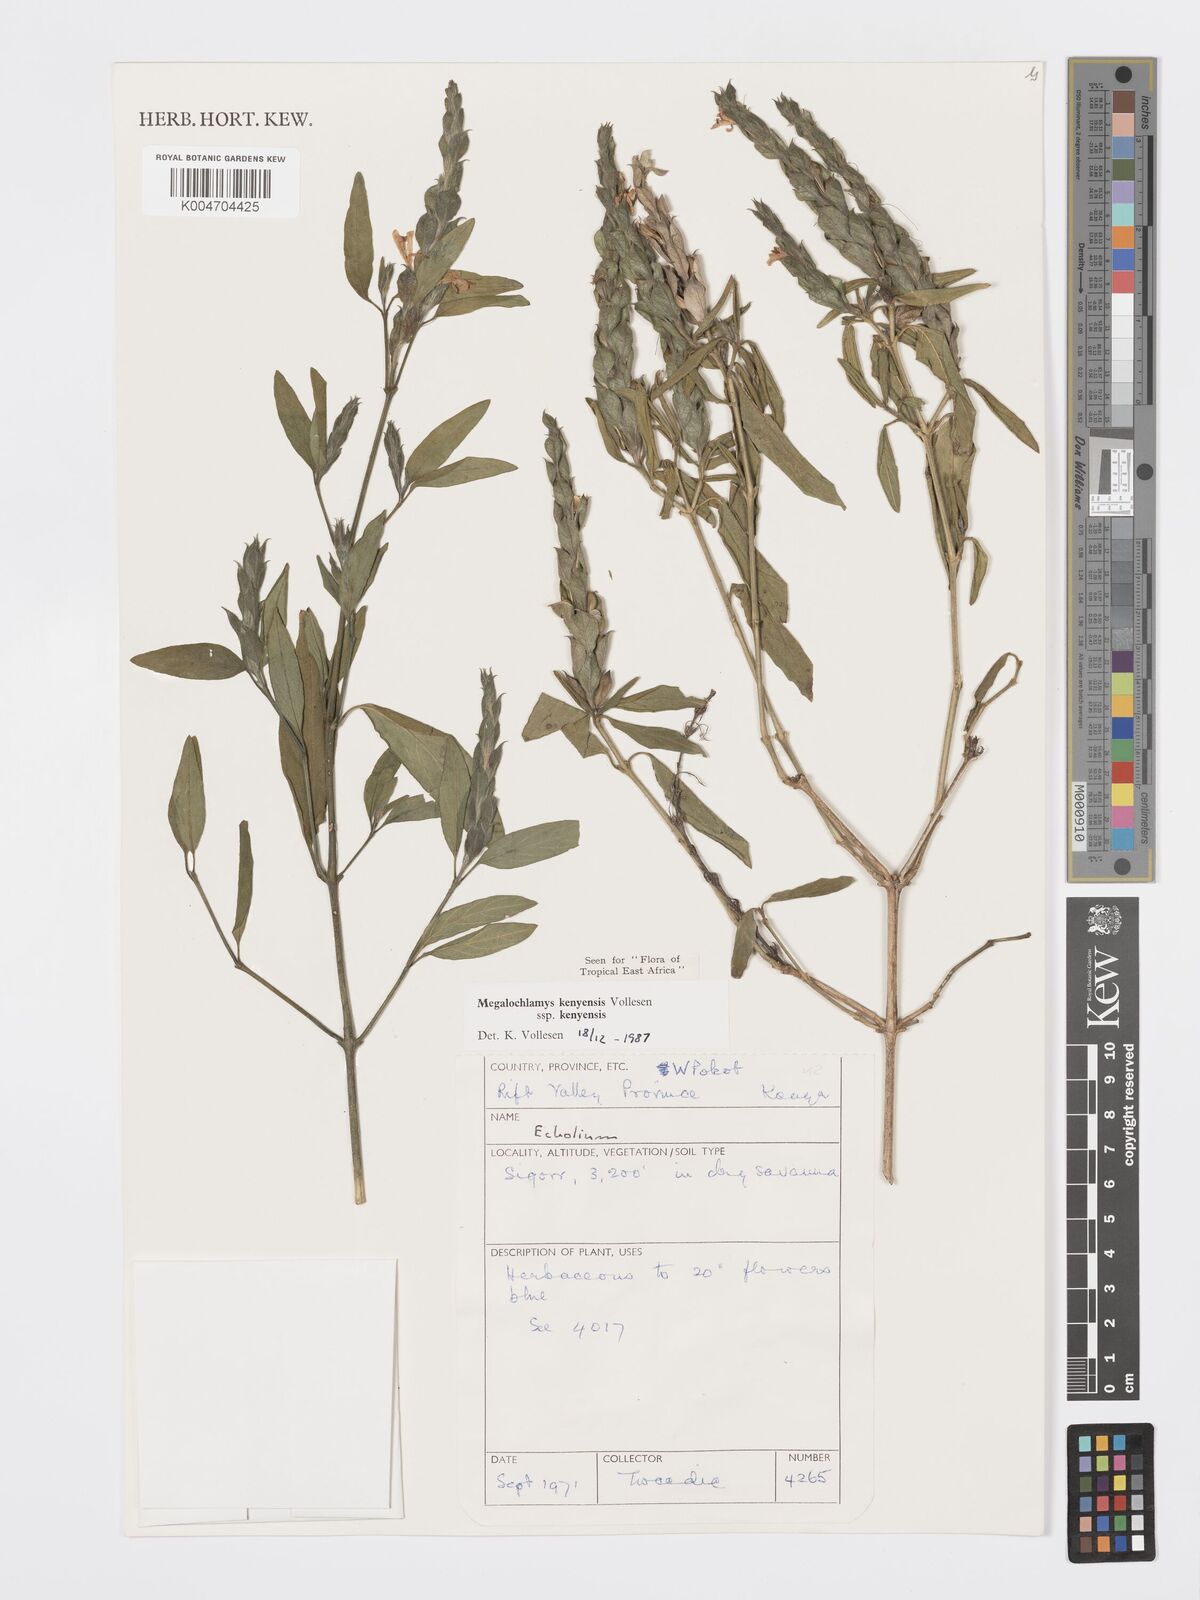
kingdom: Plantae
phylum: Tracheophyta
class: Magnoliopsida
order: Lamiales
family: Acanthaceae
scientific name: Acanthaceae
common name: Acanthaceae
